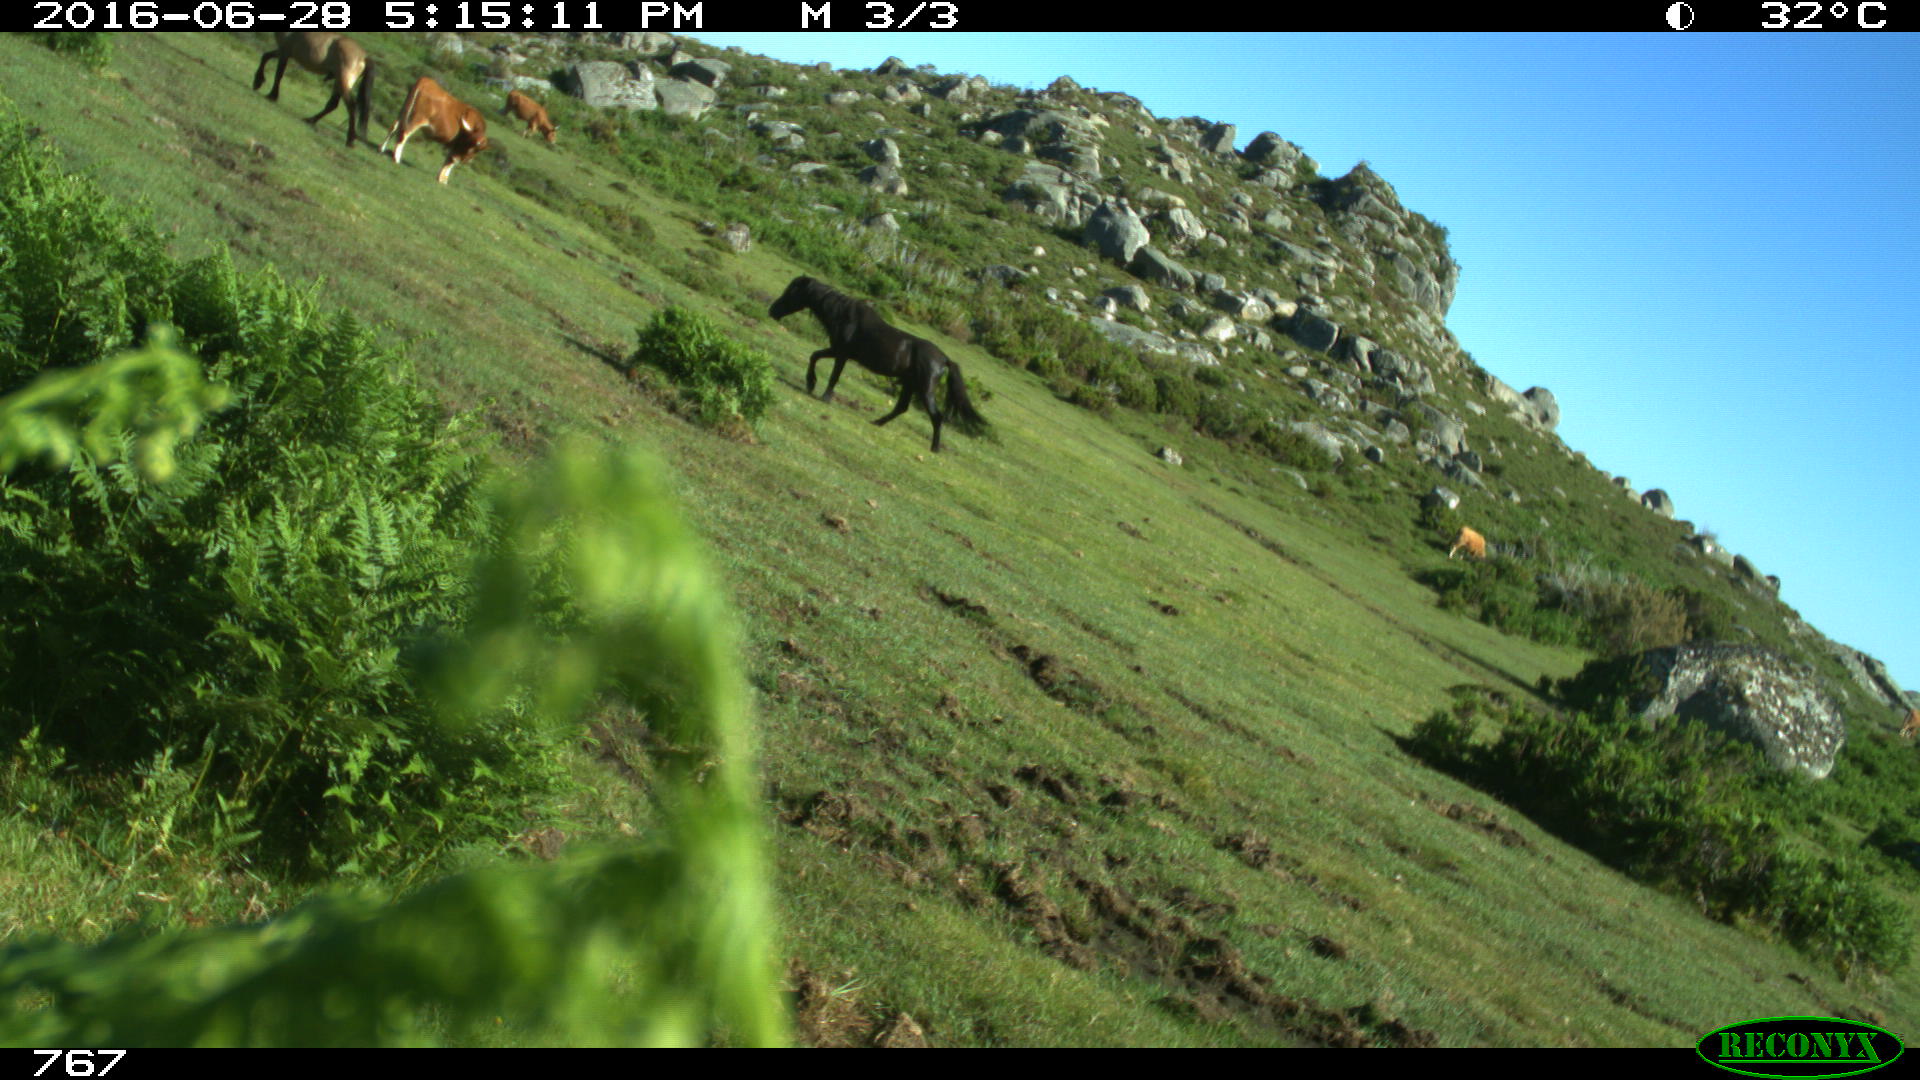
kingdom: Animalia
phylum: Chordata
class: Mammalia
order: Perissodactyla
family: Equidae
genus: Equus
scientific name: Equus caballus
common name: Horse
